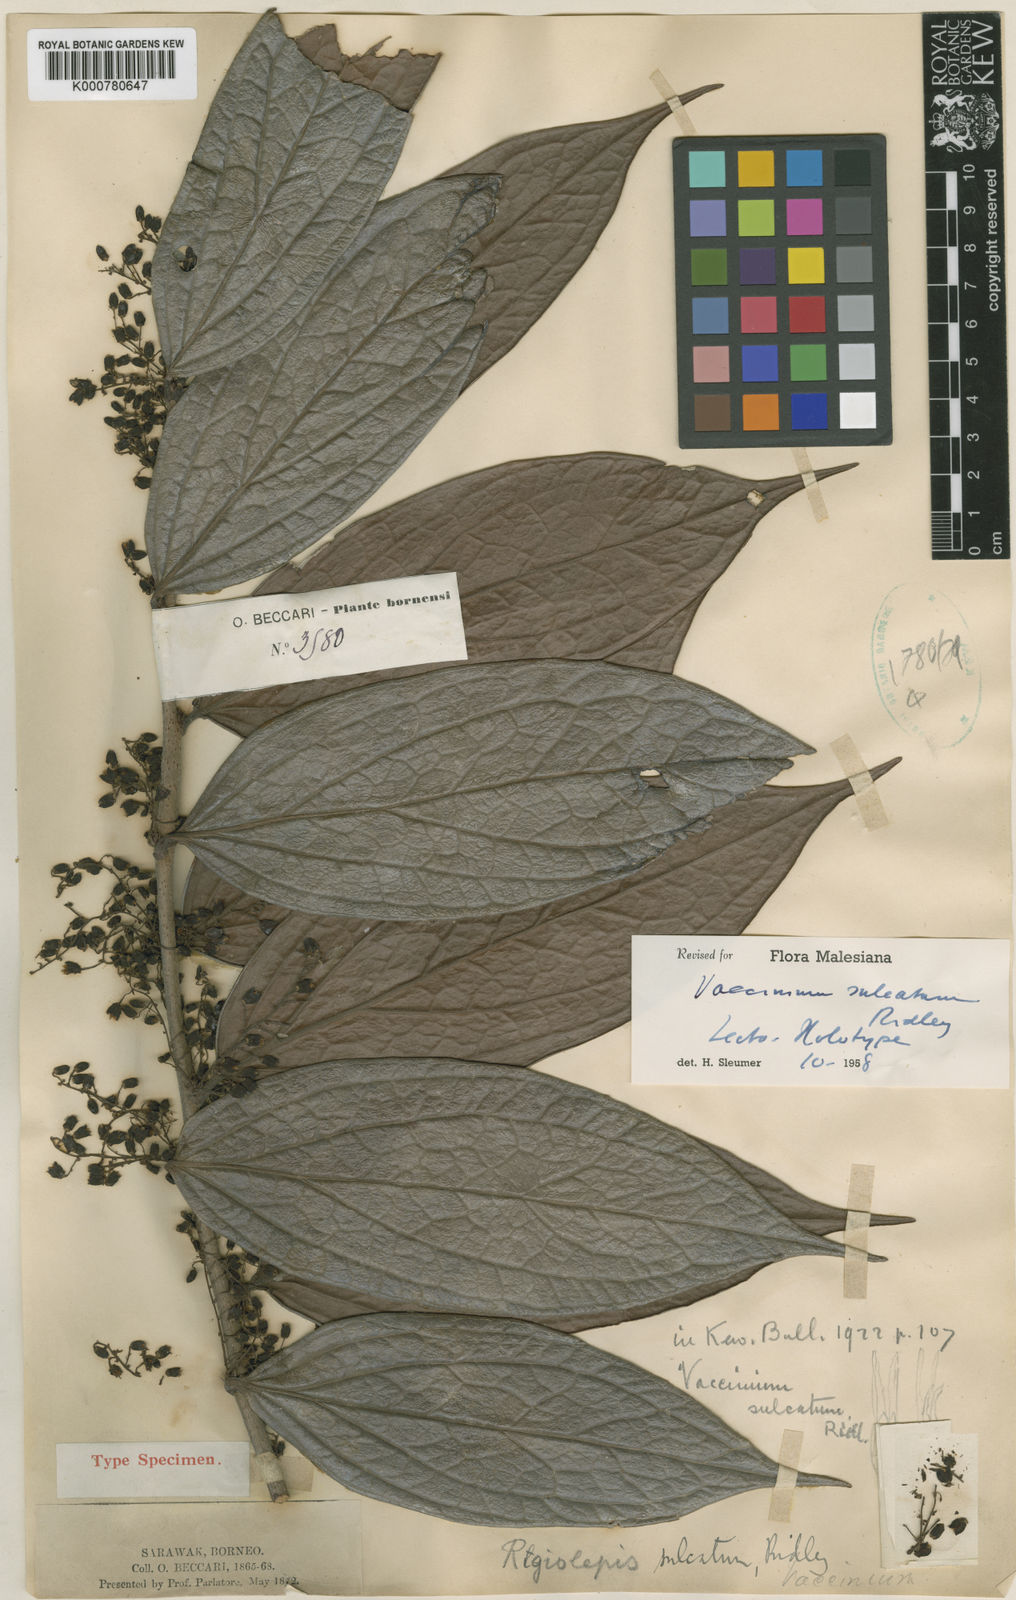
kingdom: Plantae
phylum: Tracheophyta
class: Magnoliopsida
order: Ericales
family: Ericaceae
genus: Rigiolepis
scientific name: Rigiolepis sulcata
